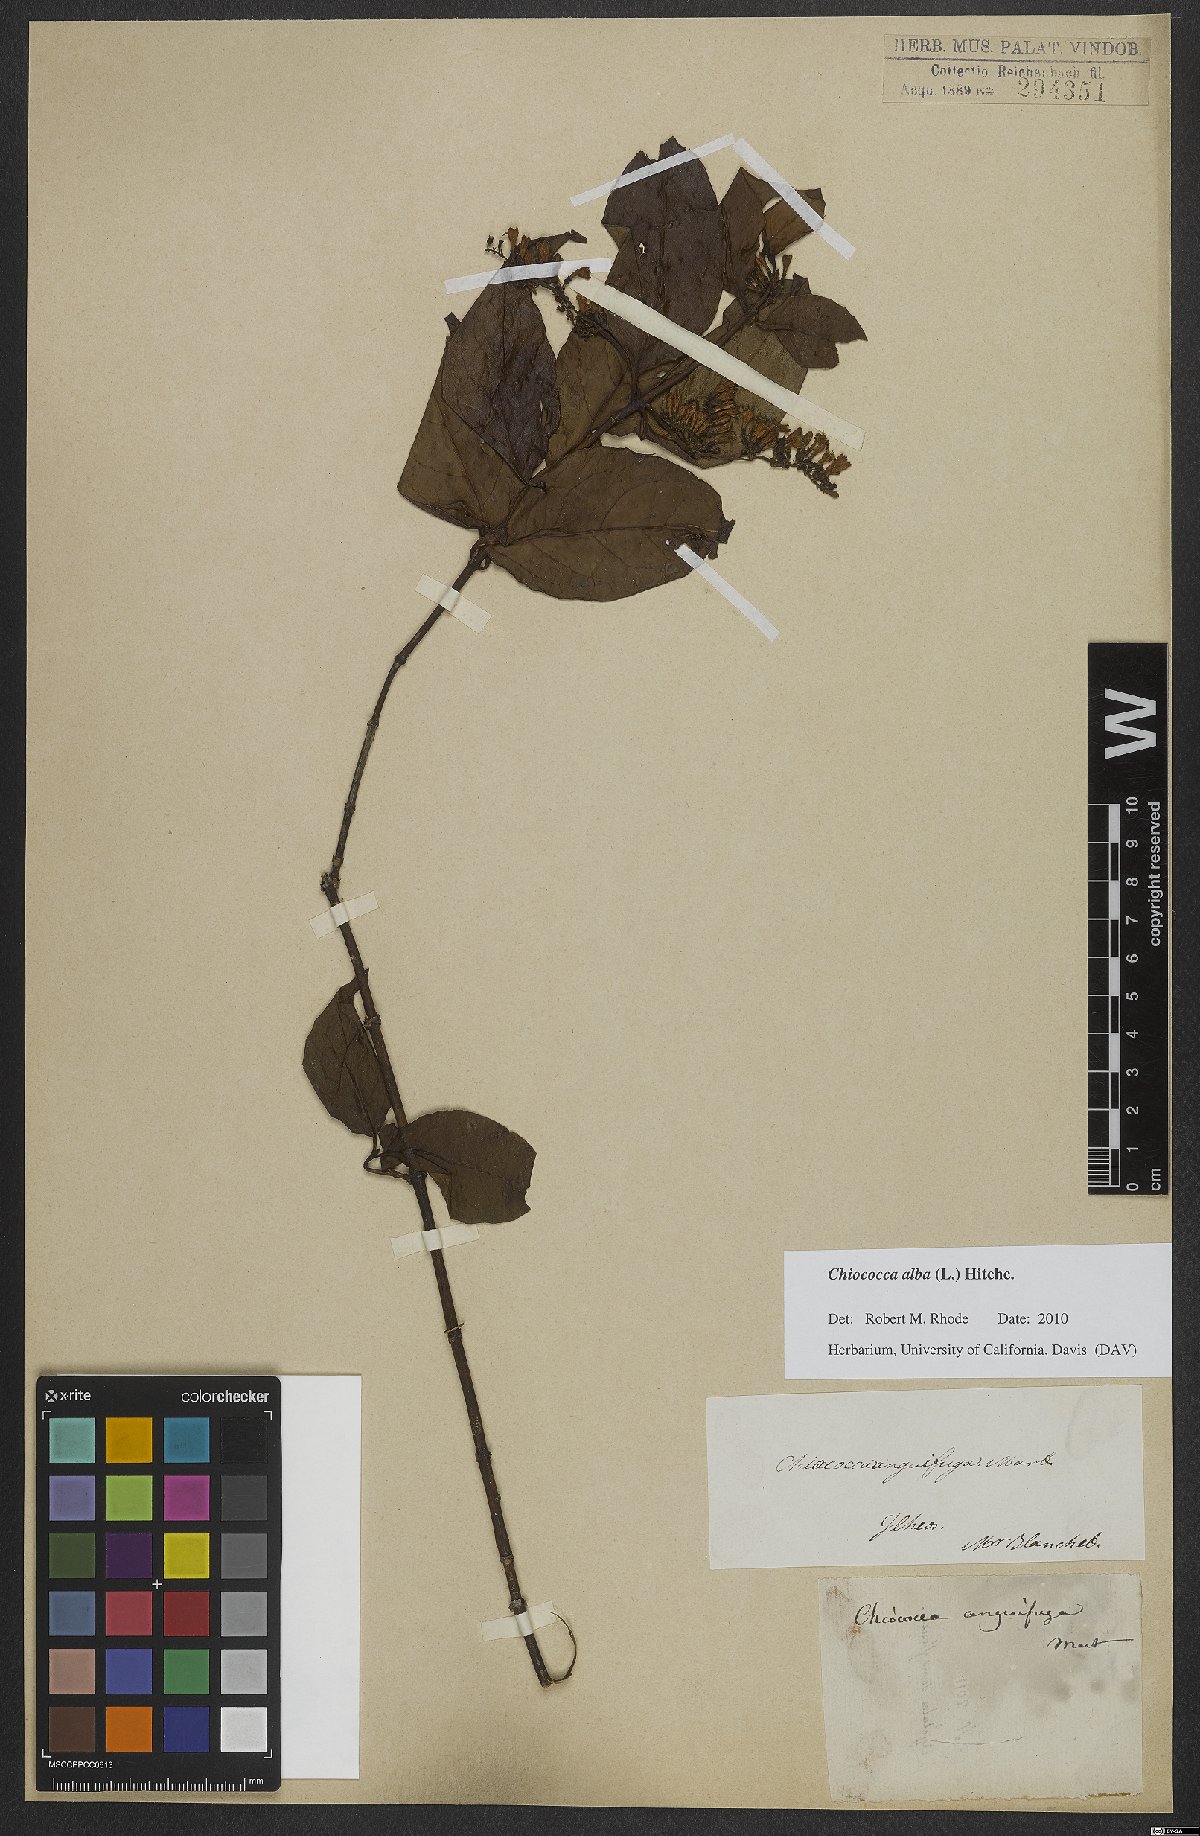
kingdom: Plantae
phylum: Tracheophyta
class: Magnoliopsida
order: Gentianales
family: Rubiaceae
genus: Chiococca
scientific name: Chiococca alba
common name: Snowberry
